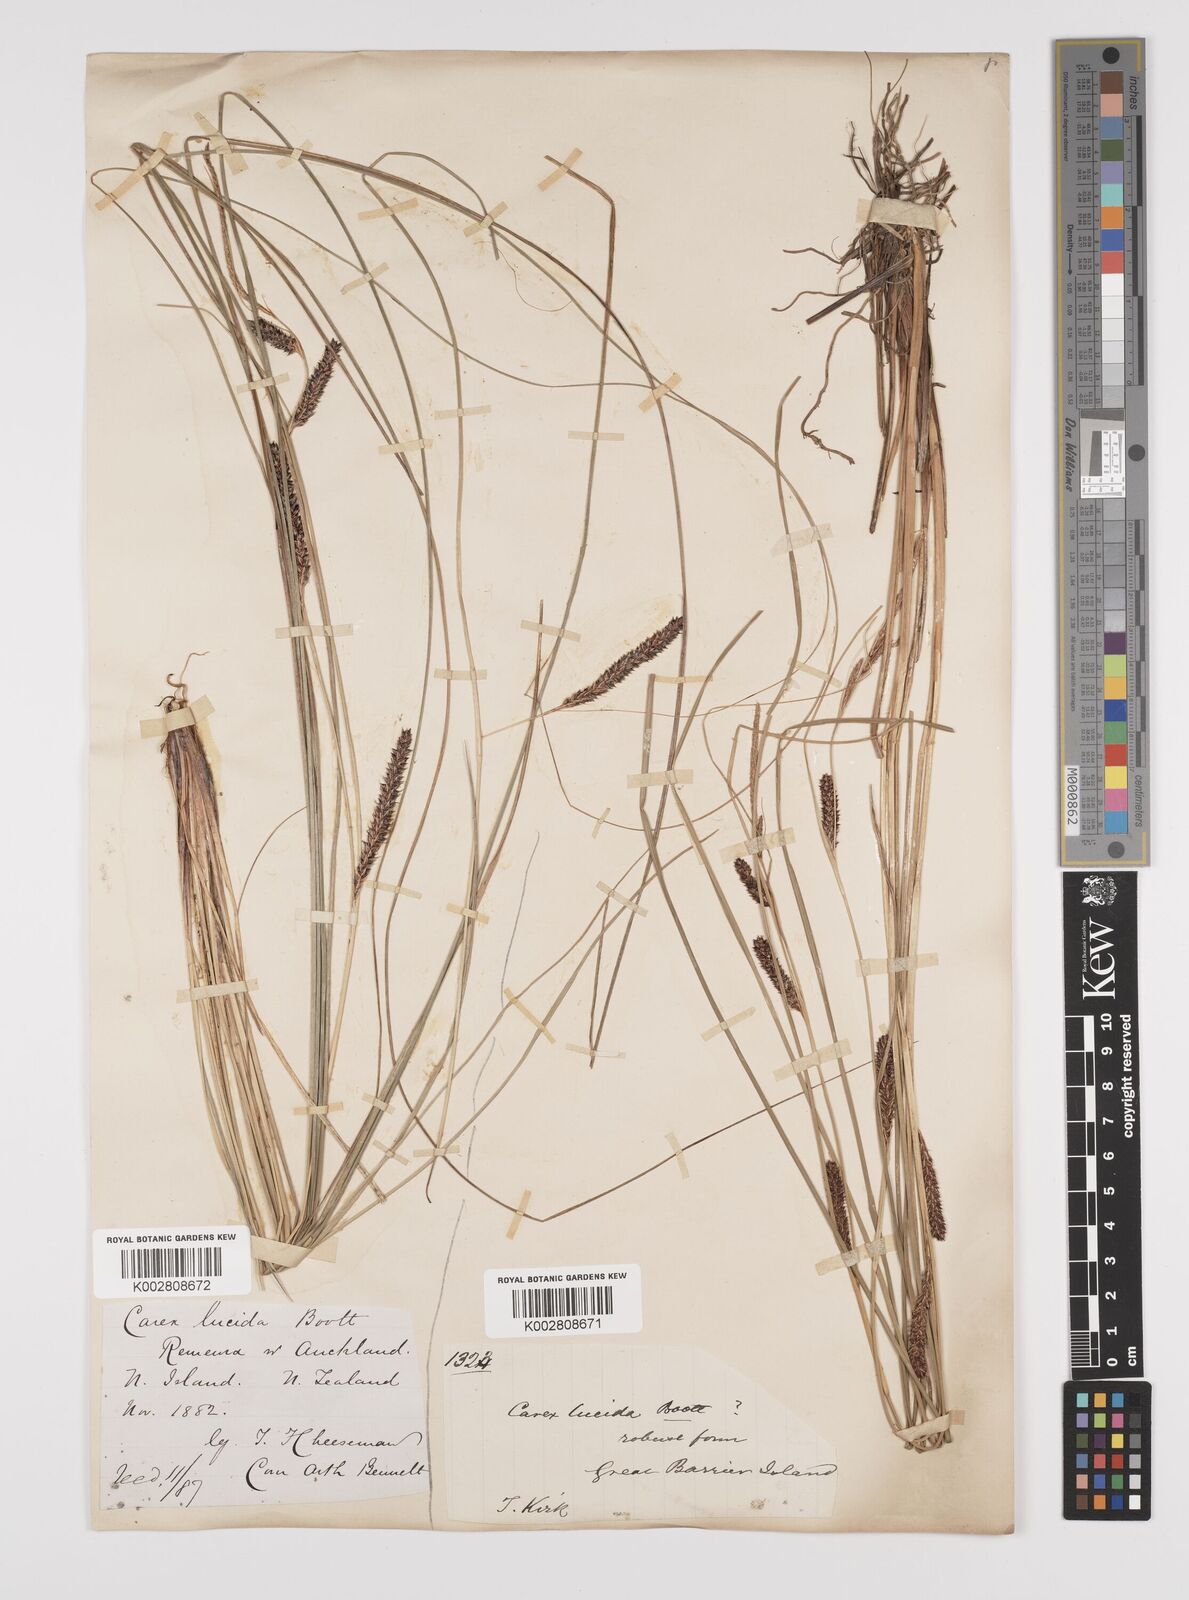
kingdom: Plantae
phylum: Tracheophyta
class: Liliopsida
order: Poales
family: Cyperaceae
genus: Carex
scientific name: Carex flagellifera
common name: Glen murray tussock
